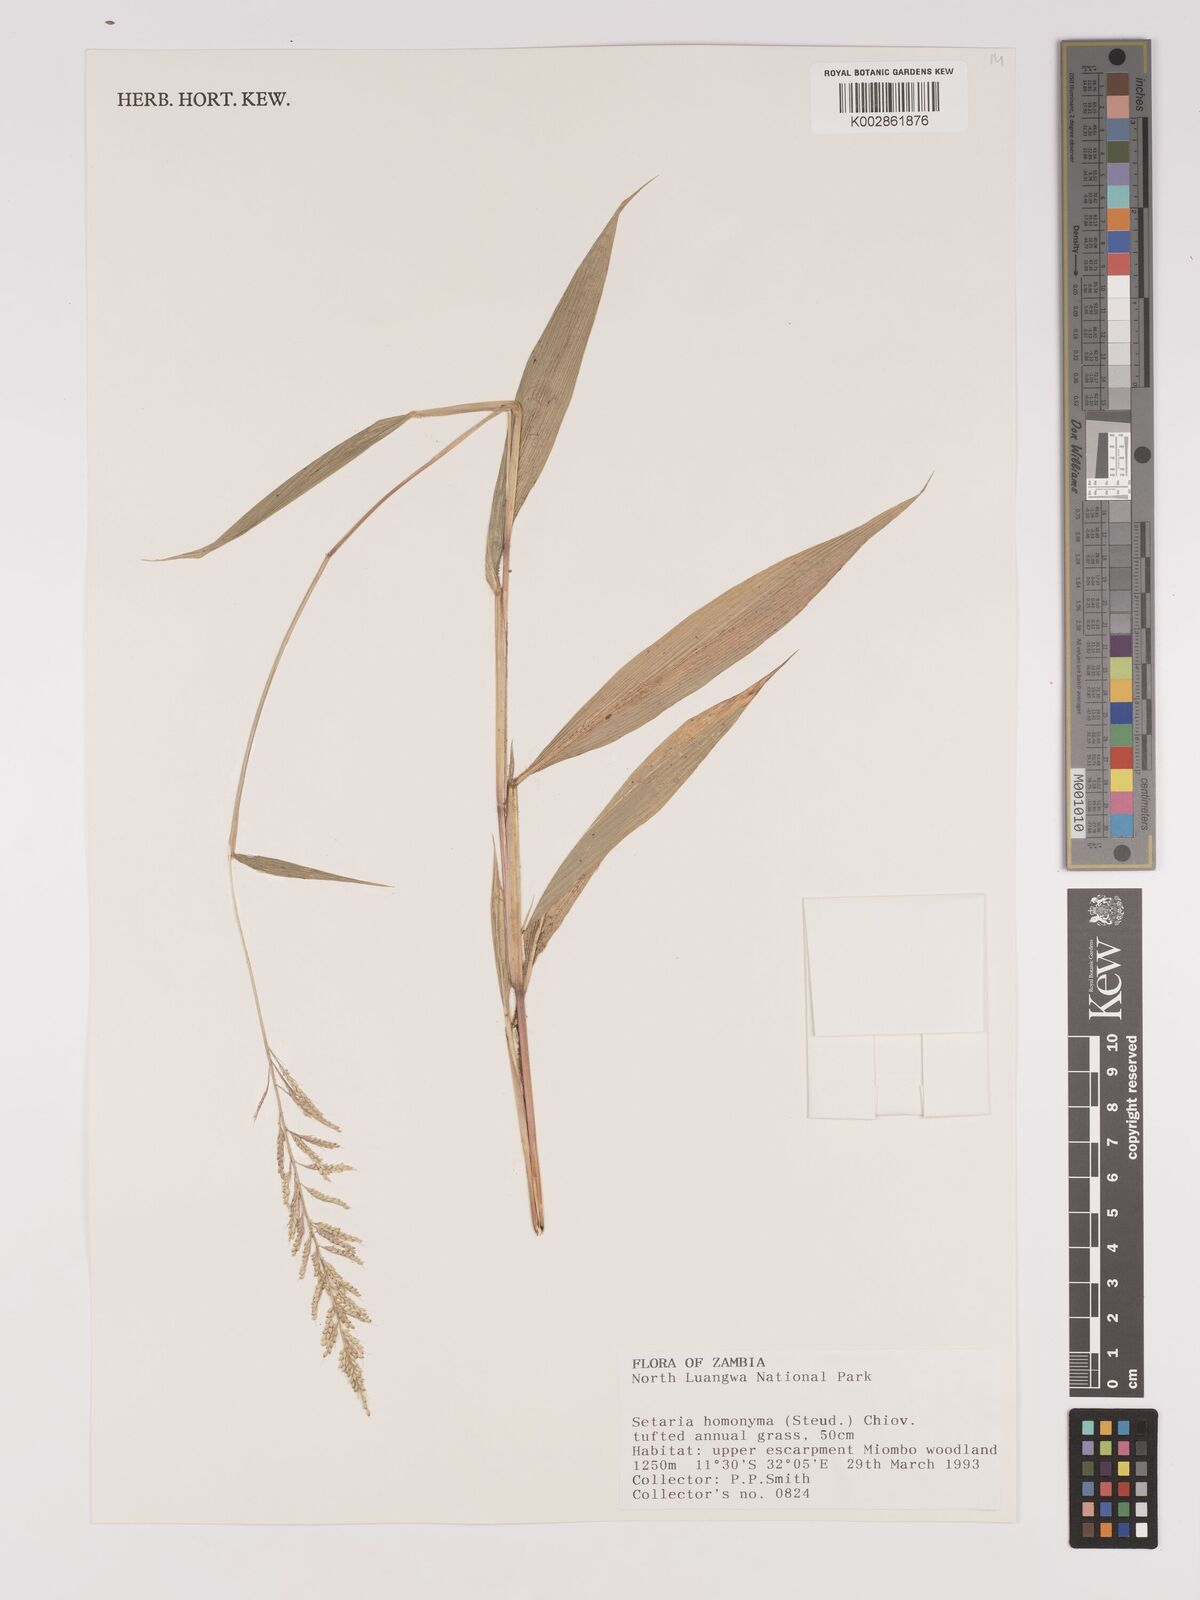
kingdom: Plantae
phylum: Tracheophyta
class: Liliopsida
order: Poales
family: Poaceae
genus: Setaria
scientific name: Setaria homonyma
